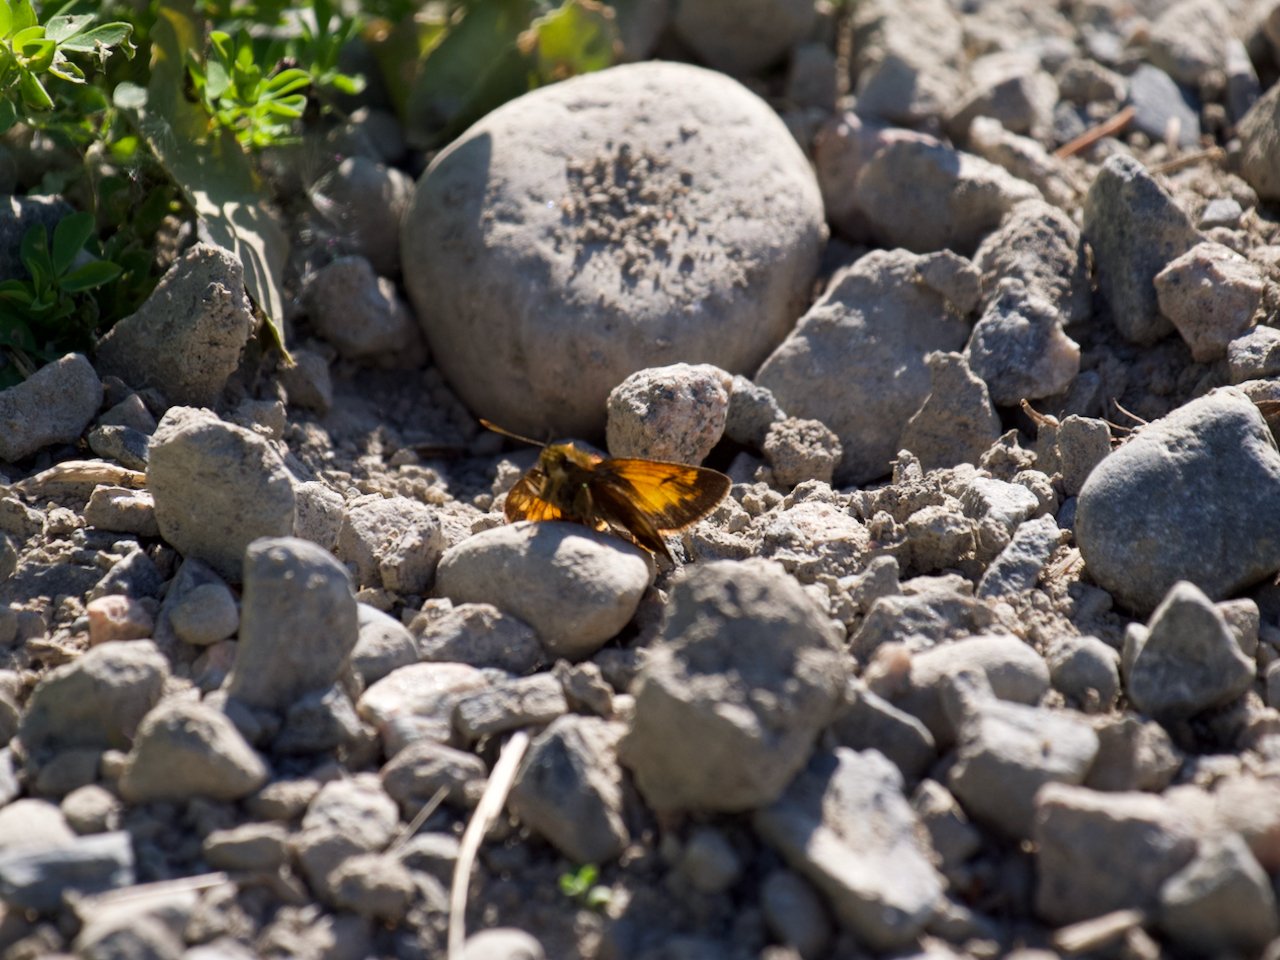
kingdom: Animalia
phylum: Arthropoda
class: Insecta
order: Lepidoptera
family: Hesperiidae
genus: Lon
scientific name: Lon hobomok
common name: Hobomok Skipper
